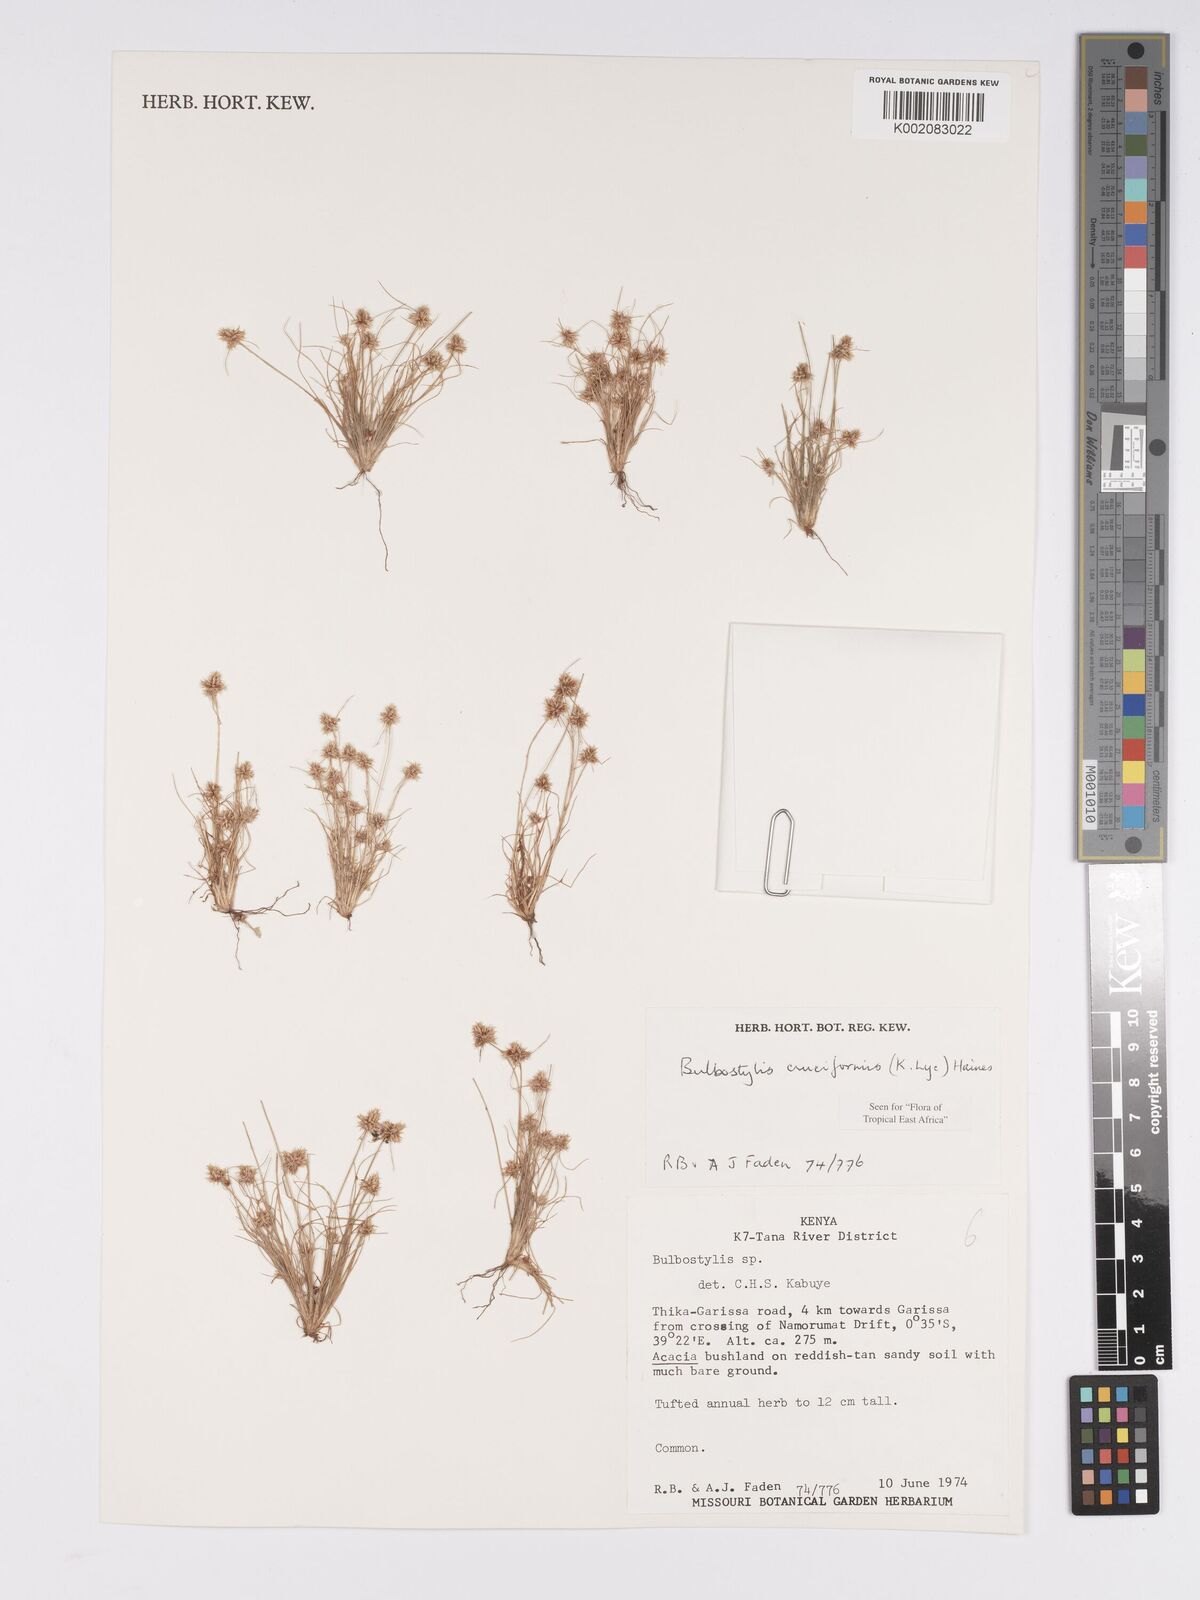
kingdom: Plantae
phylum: Tracheophyta
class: Liliopsida
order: Poales
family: Cyperaceae
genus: Bulbostylis
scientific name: Bulbostylis cruciformis
